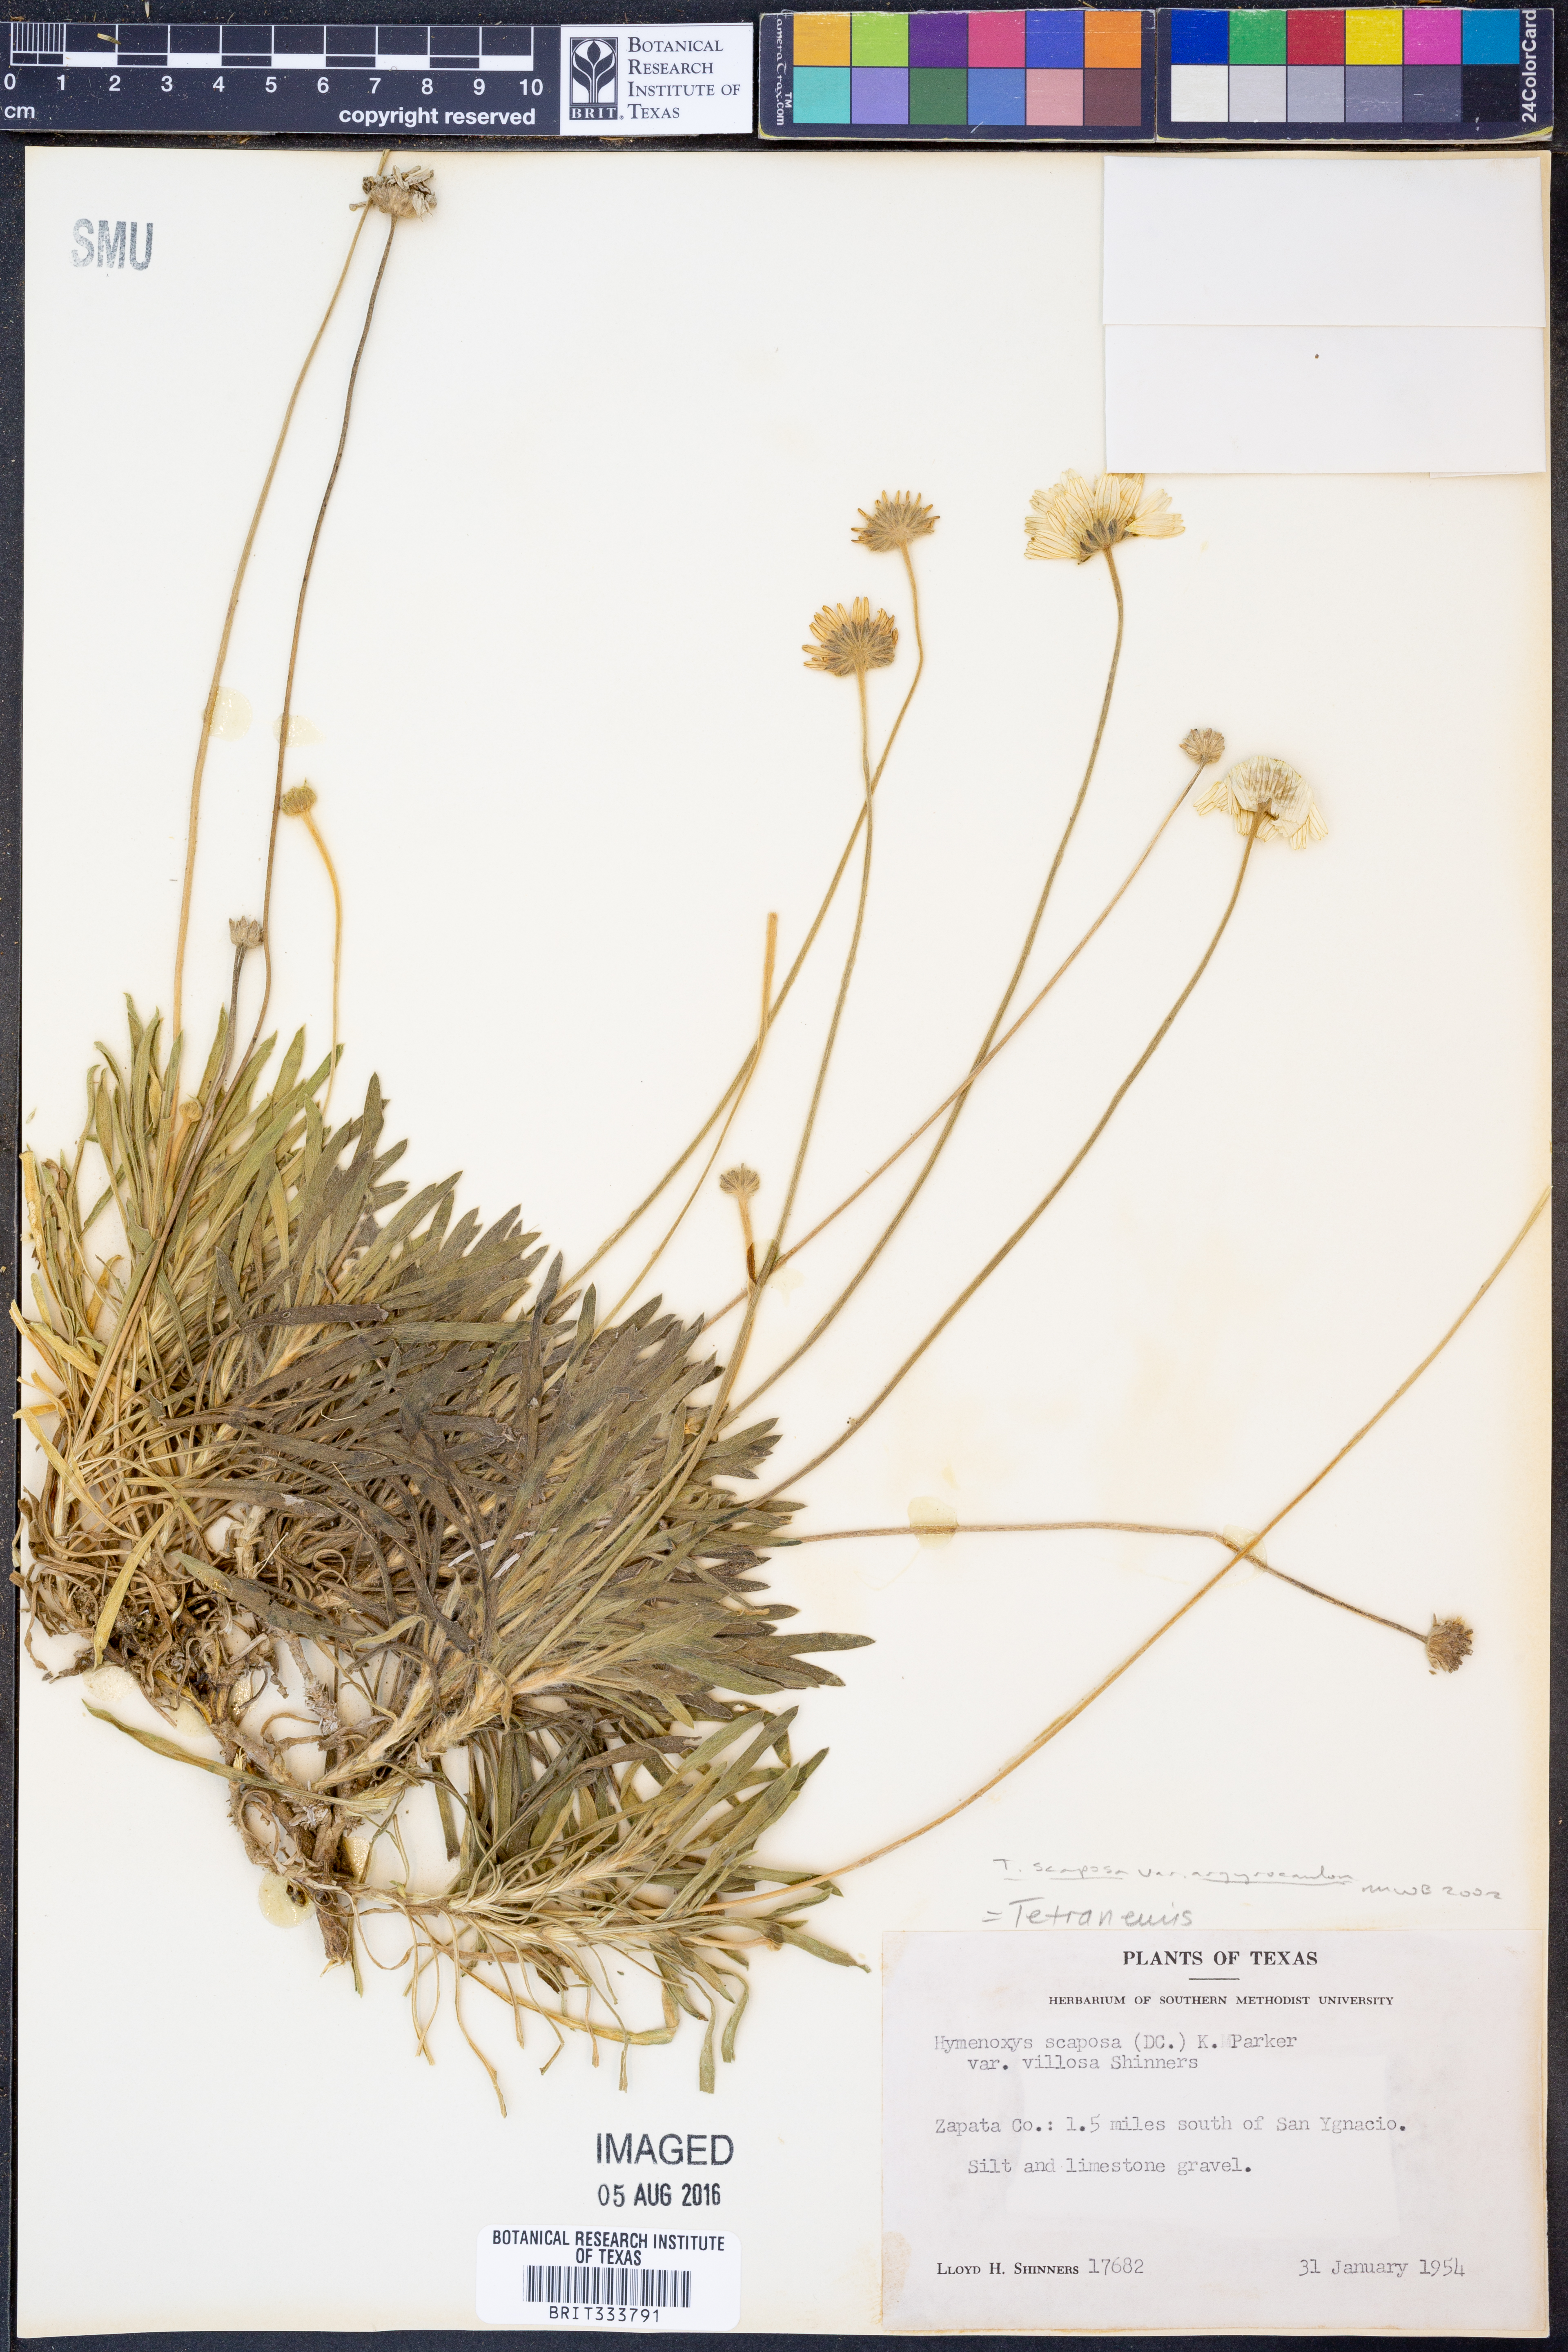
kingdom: Plantae
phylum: Tracheophyta
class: Magnoliopsida
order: Asterales
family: Asteraceae
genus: Tetraneuris
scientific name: Tetraneuris scaposa
